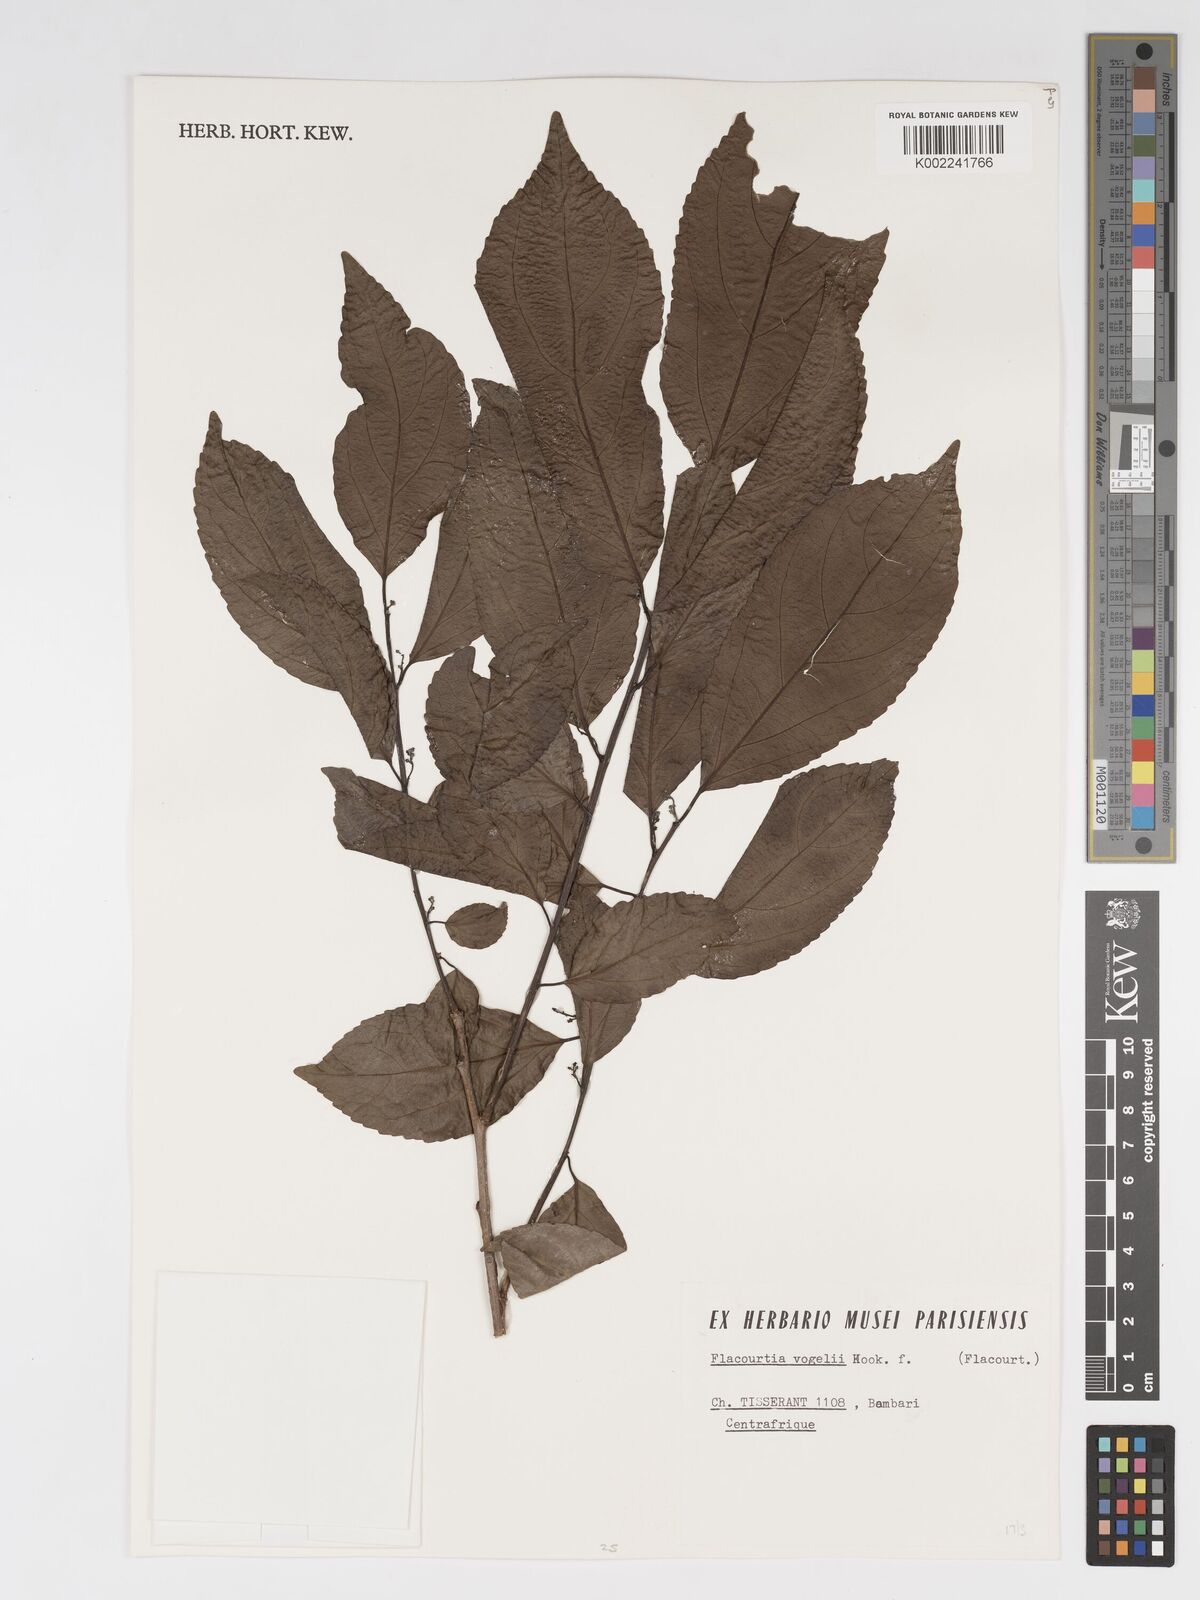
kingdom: Plantae
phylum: Tracheophyta
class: Magnoliopsida
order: Malpighiales
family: Salicaceae
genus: Flacourtia
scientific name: Flacourtia vogelii
